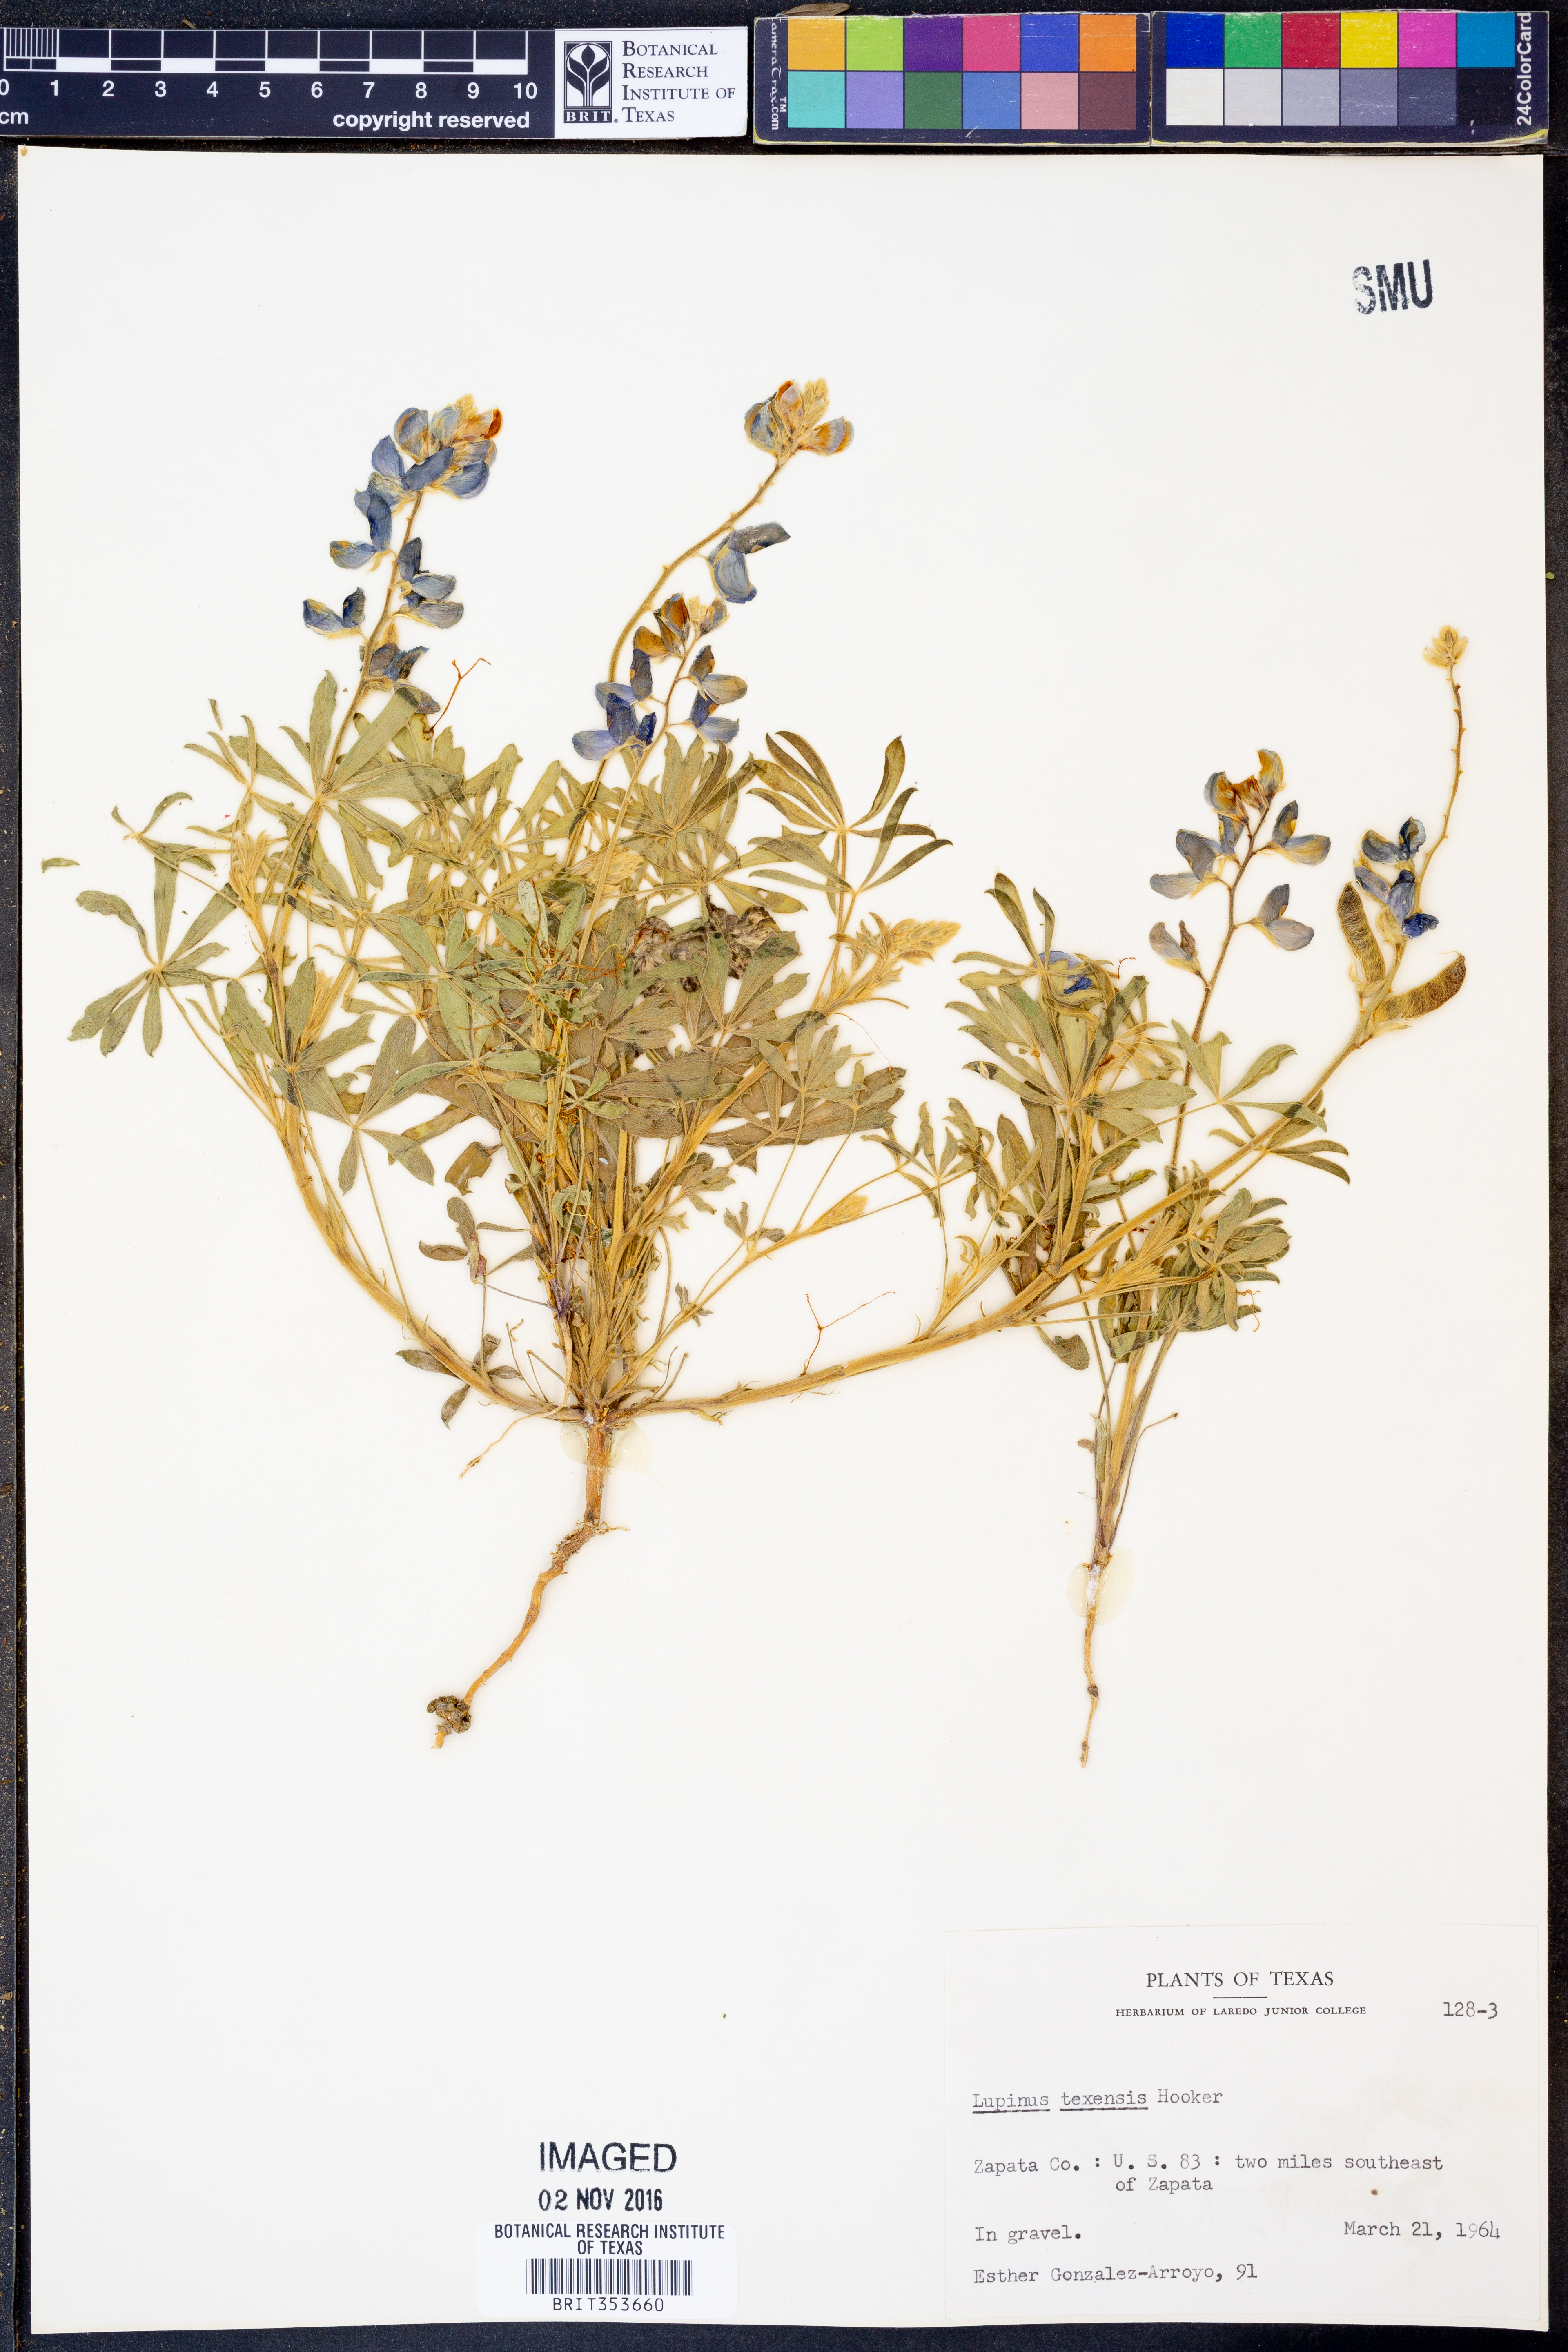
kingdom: Plantae
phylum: Tracheophyta
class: Magnoliopsida
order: Fabales
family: Fabaceae
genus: Lupinus
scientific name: Lupinus texensis
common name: Texas bluebonnet
